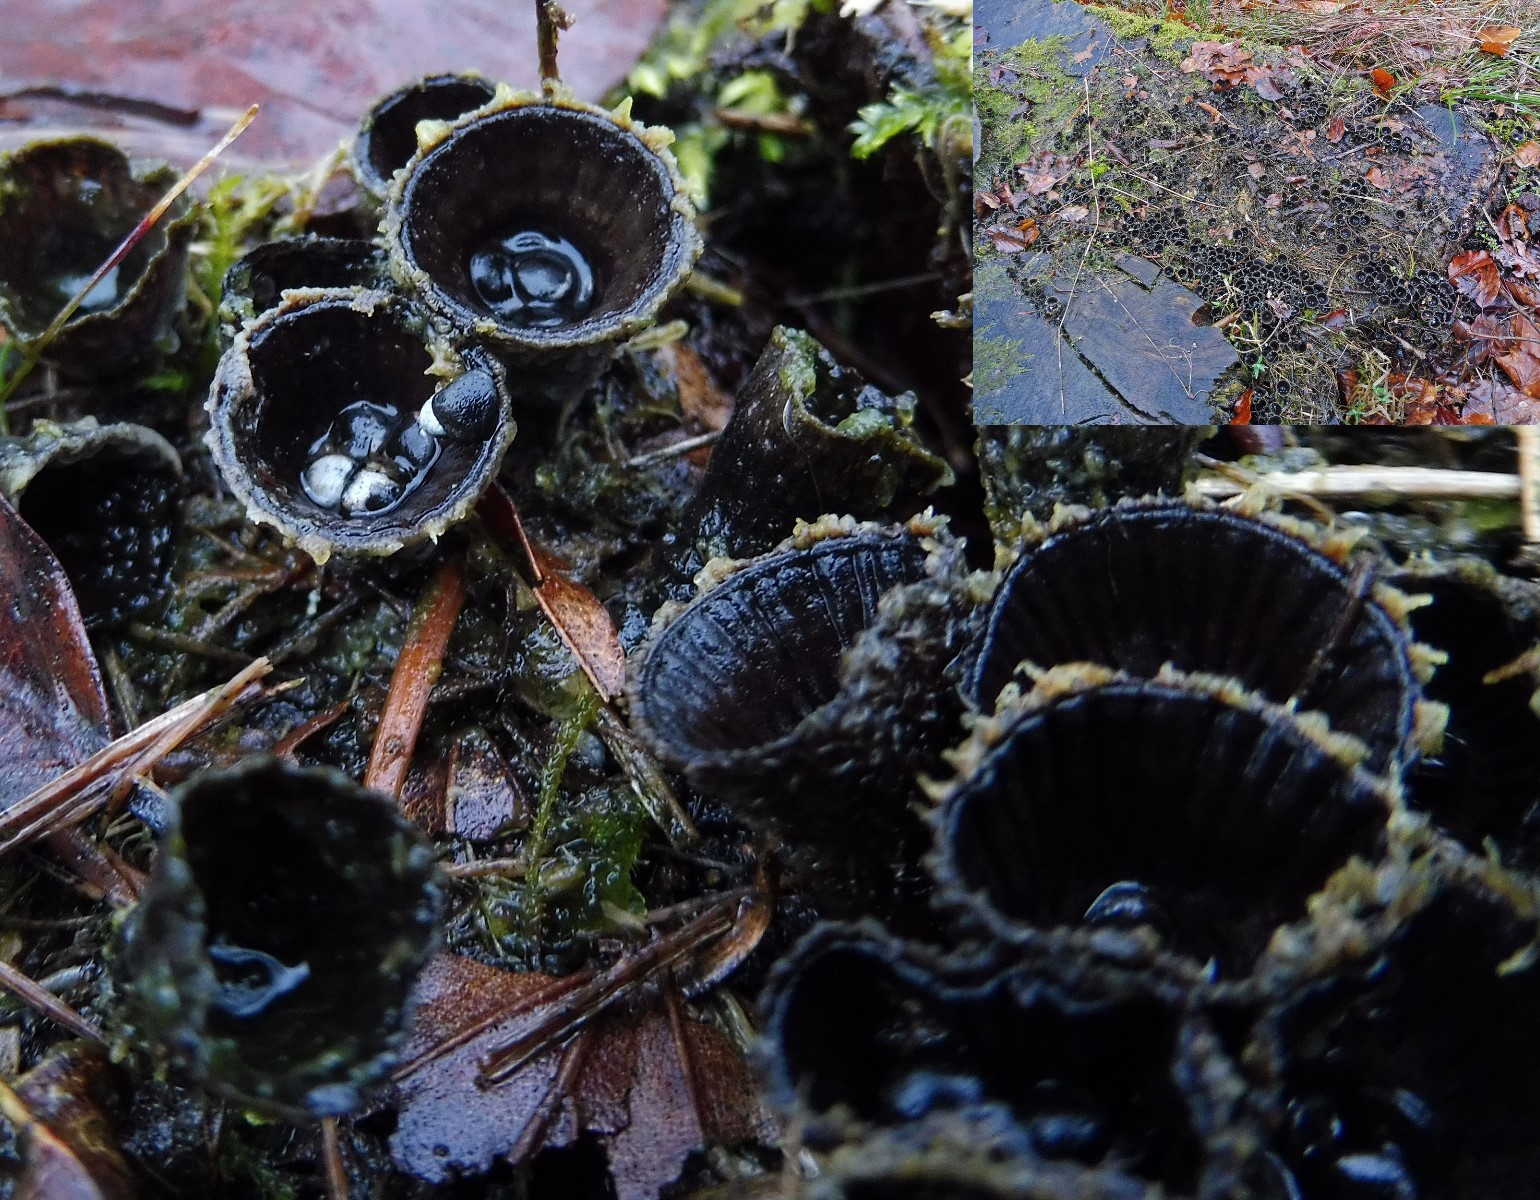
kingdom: Fungi
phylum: Basidiomycota
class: Agaricomycetes
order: Agaricales
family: Agaricaceae
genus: Cyathus
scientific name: Cyathus striatus
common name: stribet redesvamp
